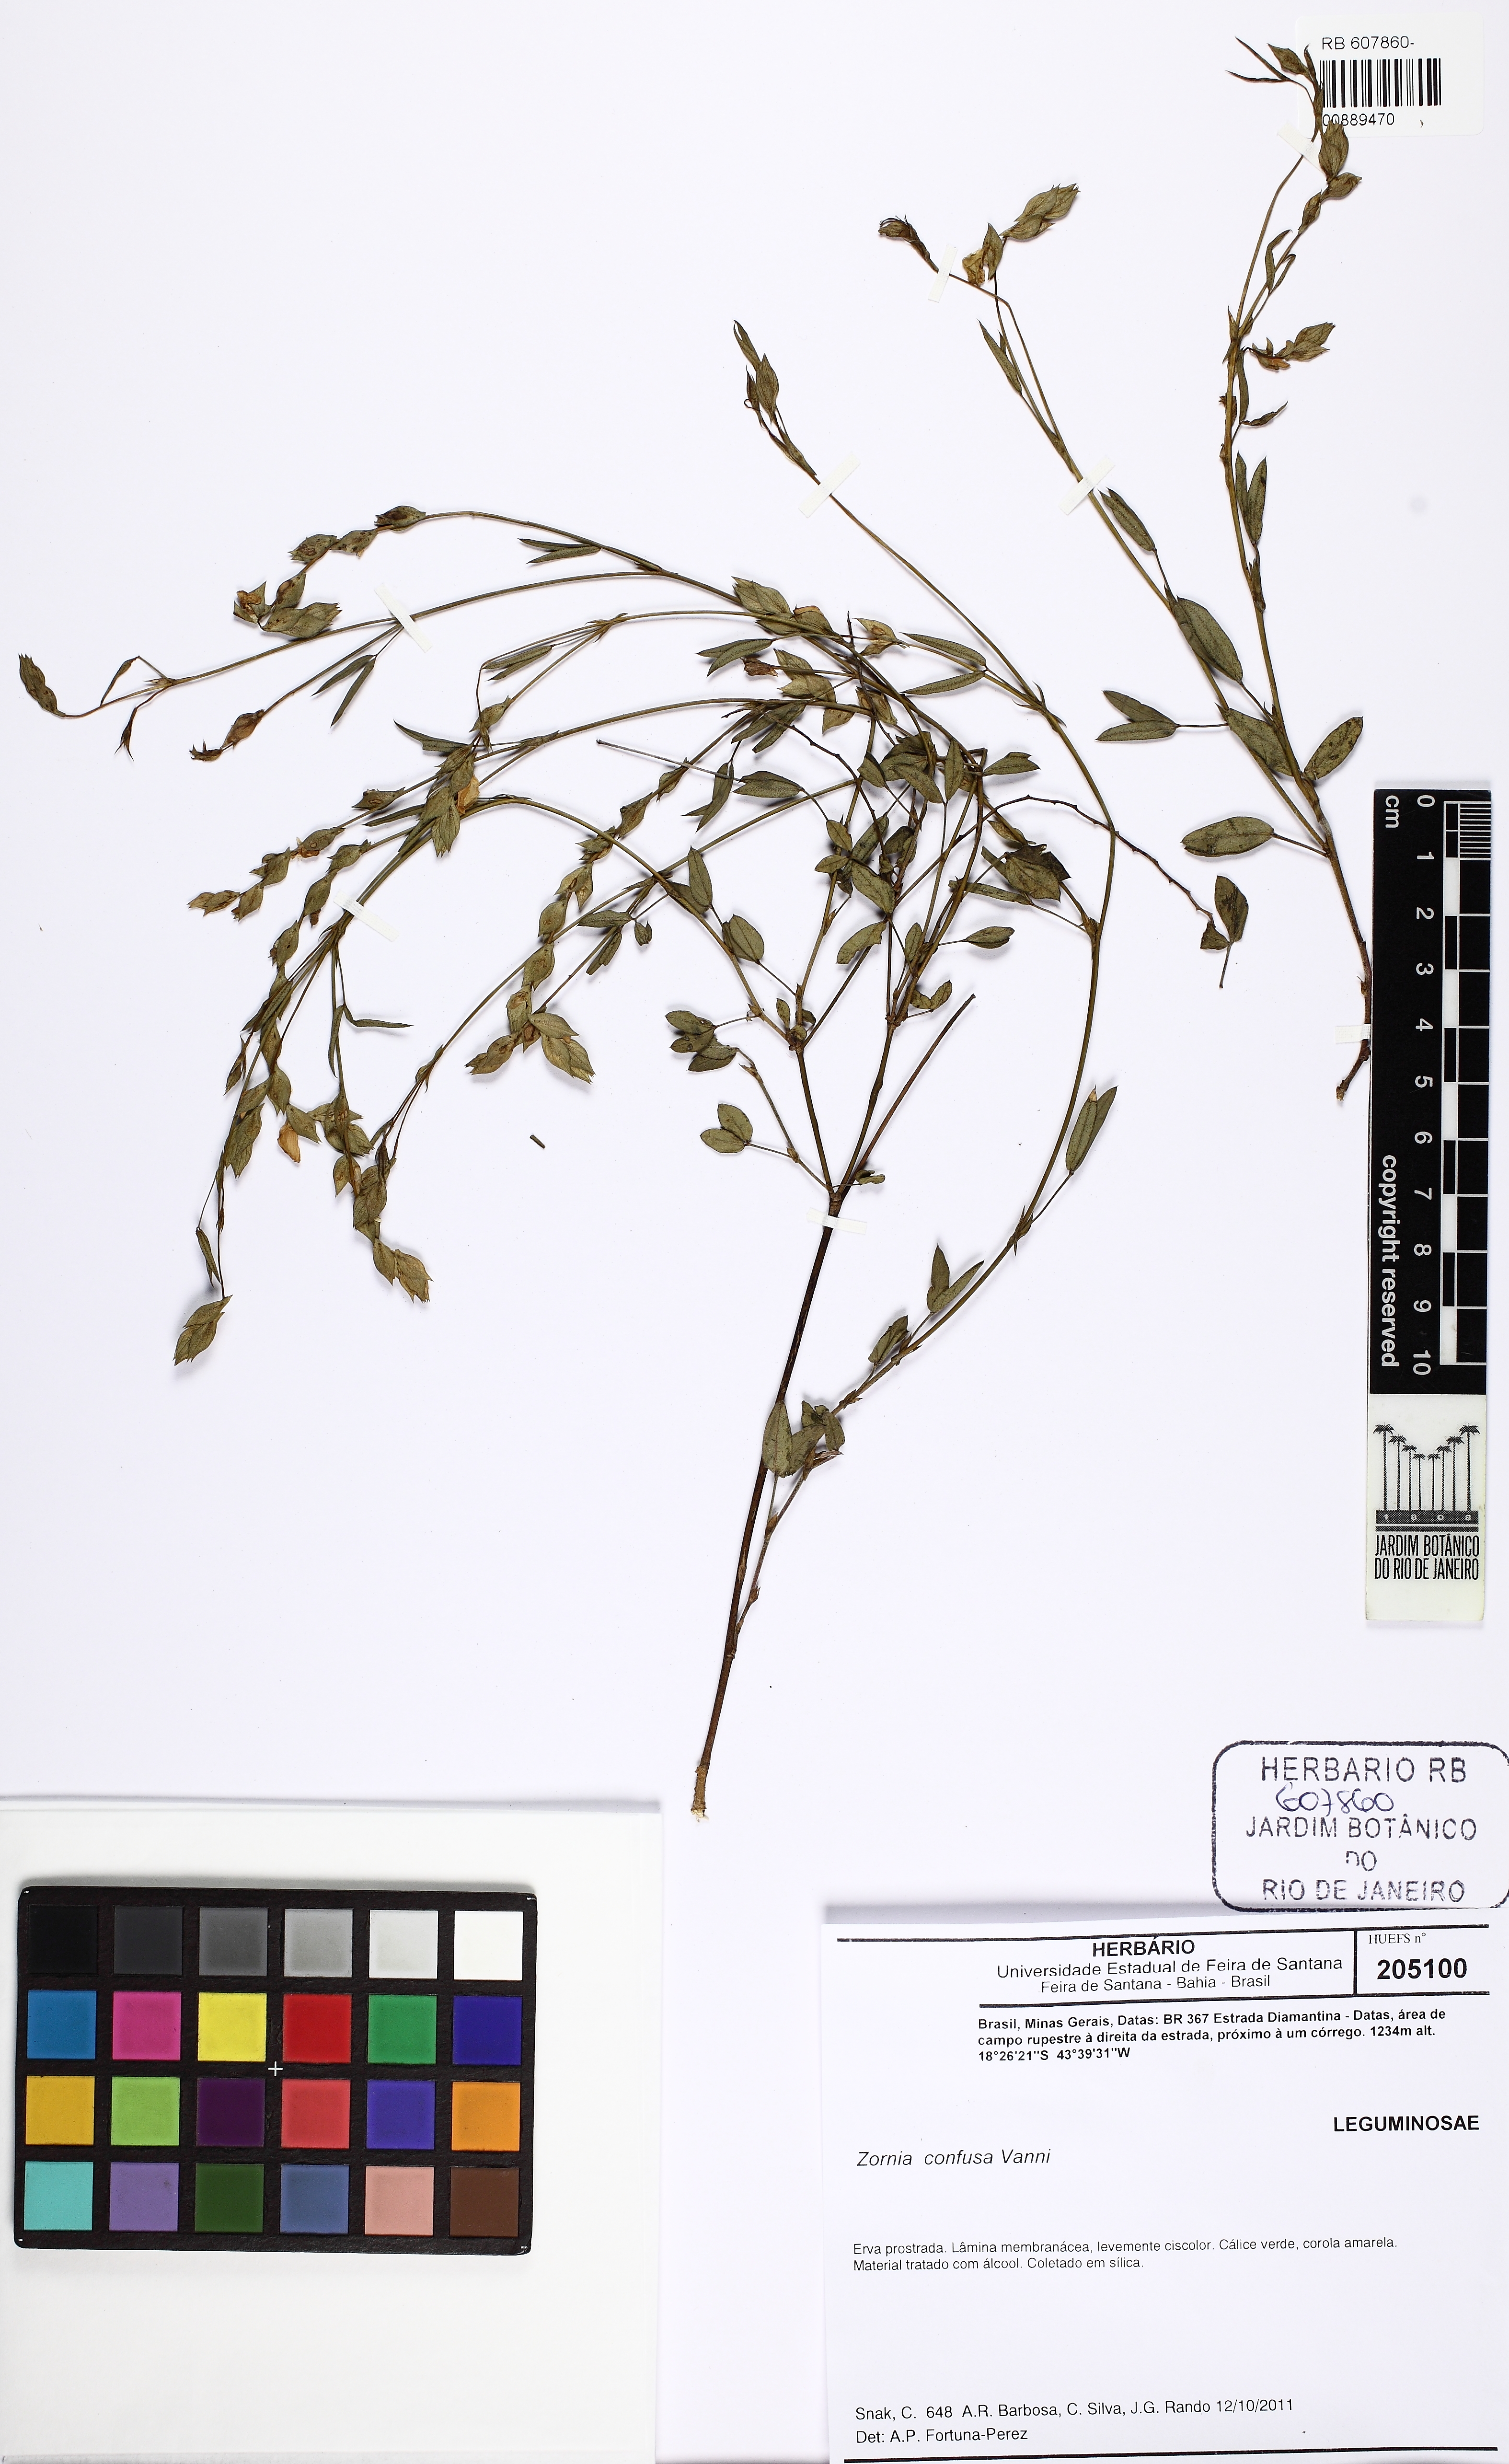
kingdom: Plantae
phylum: Tracheophyta
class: Magnoliopsida
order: Fabales
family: Fabaceae
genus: Zornia
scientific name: Zornia confusa
